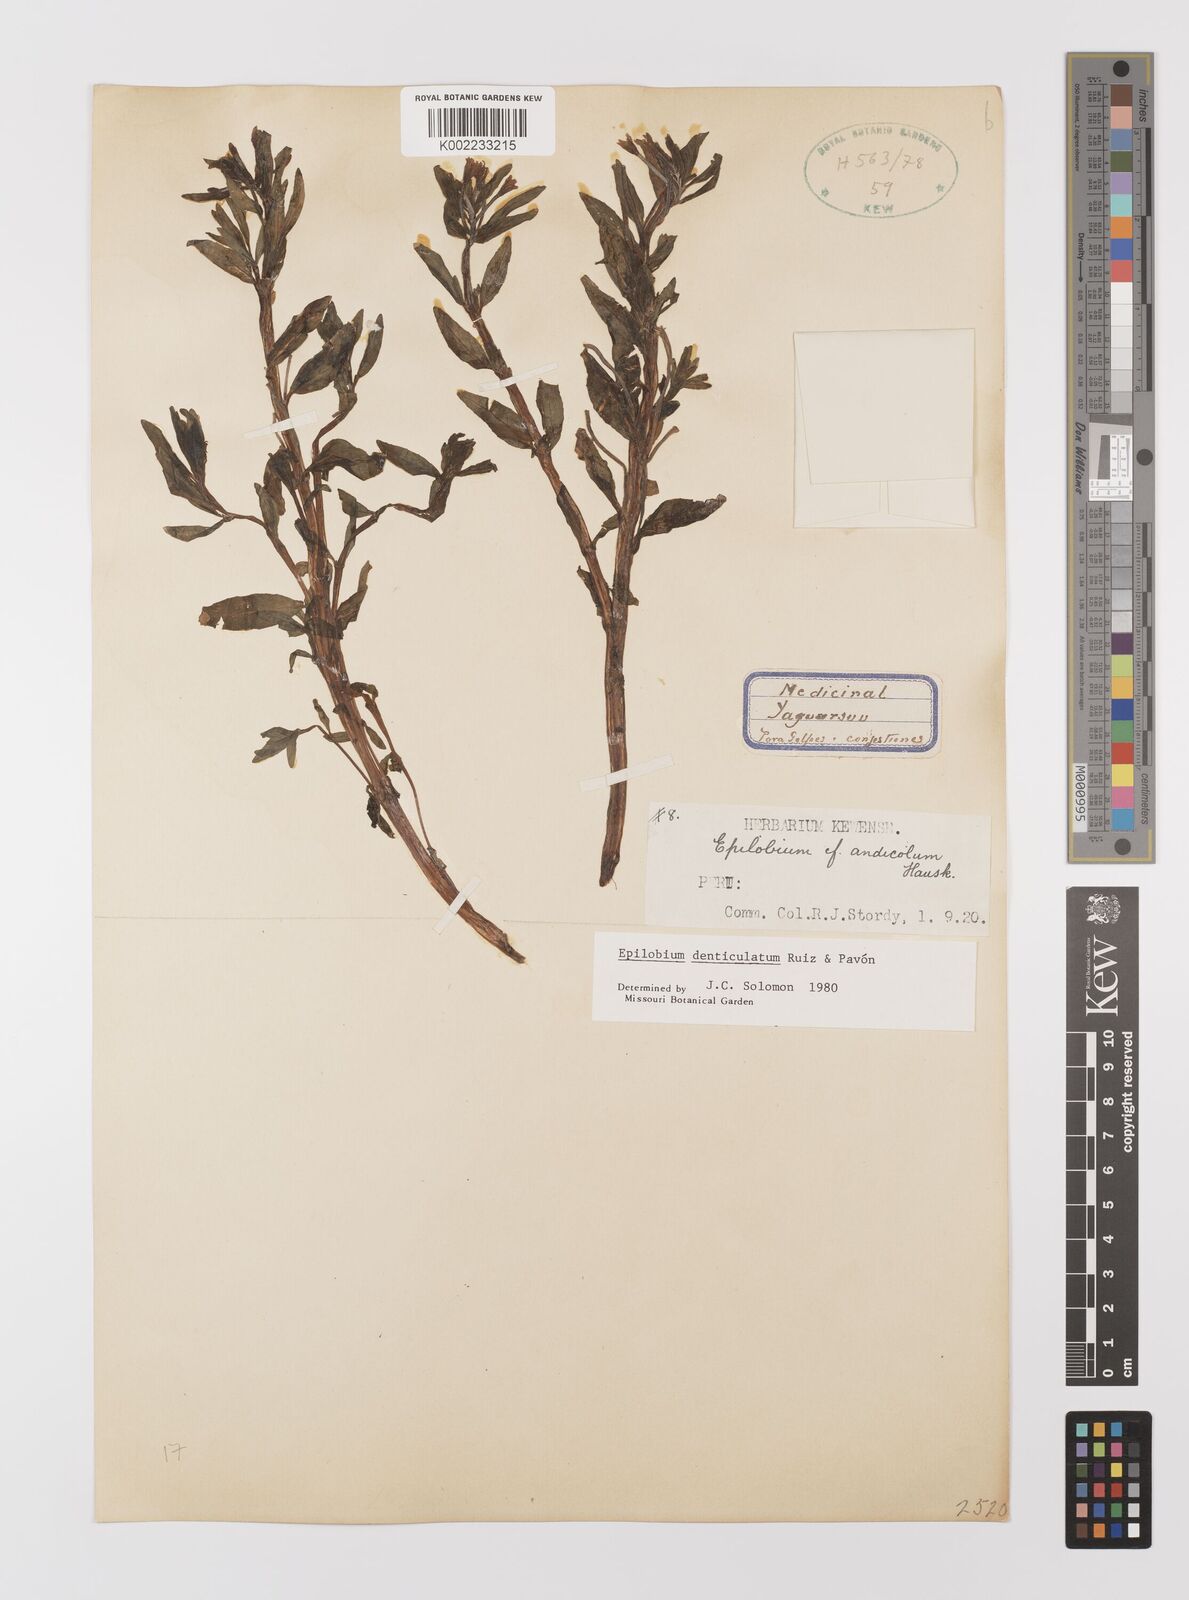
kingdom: Plantae
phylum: Tracheophyta
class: Magnoliopsida
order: Myrtales
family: Onagraceae
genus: Epilobium
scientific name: Epilobium denticulatum
